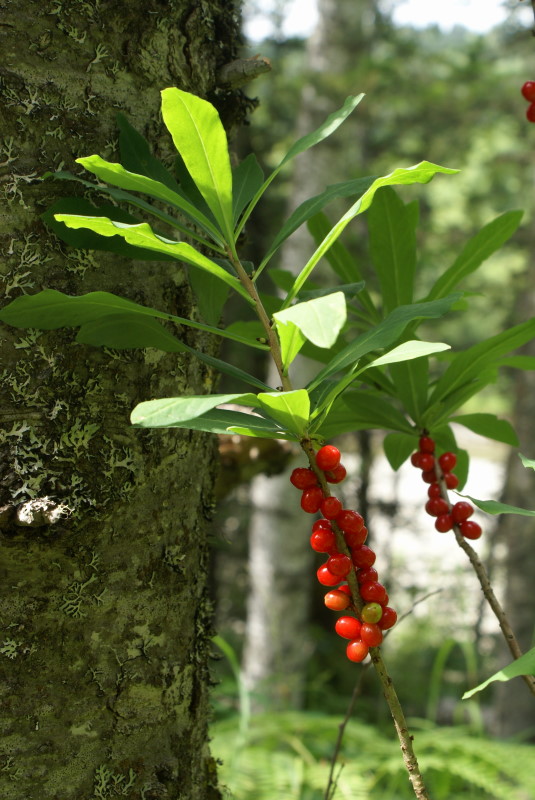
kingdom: Plantae
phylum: Tracheophyta
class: Magnoliopsida
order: Malvales
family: Thymelaeaceae
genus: Daphne
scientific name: Daphne mezereum
